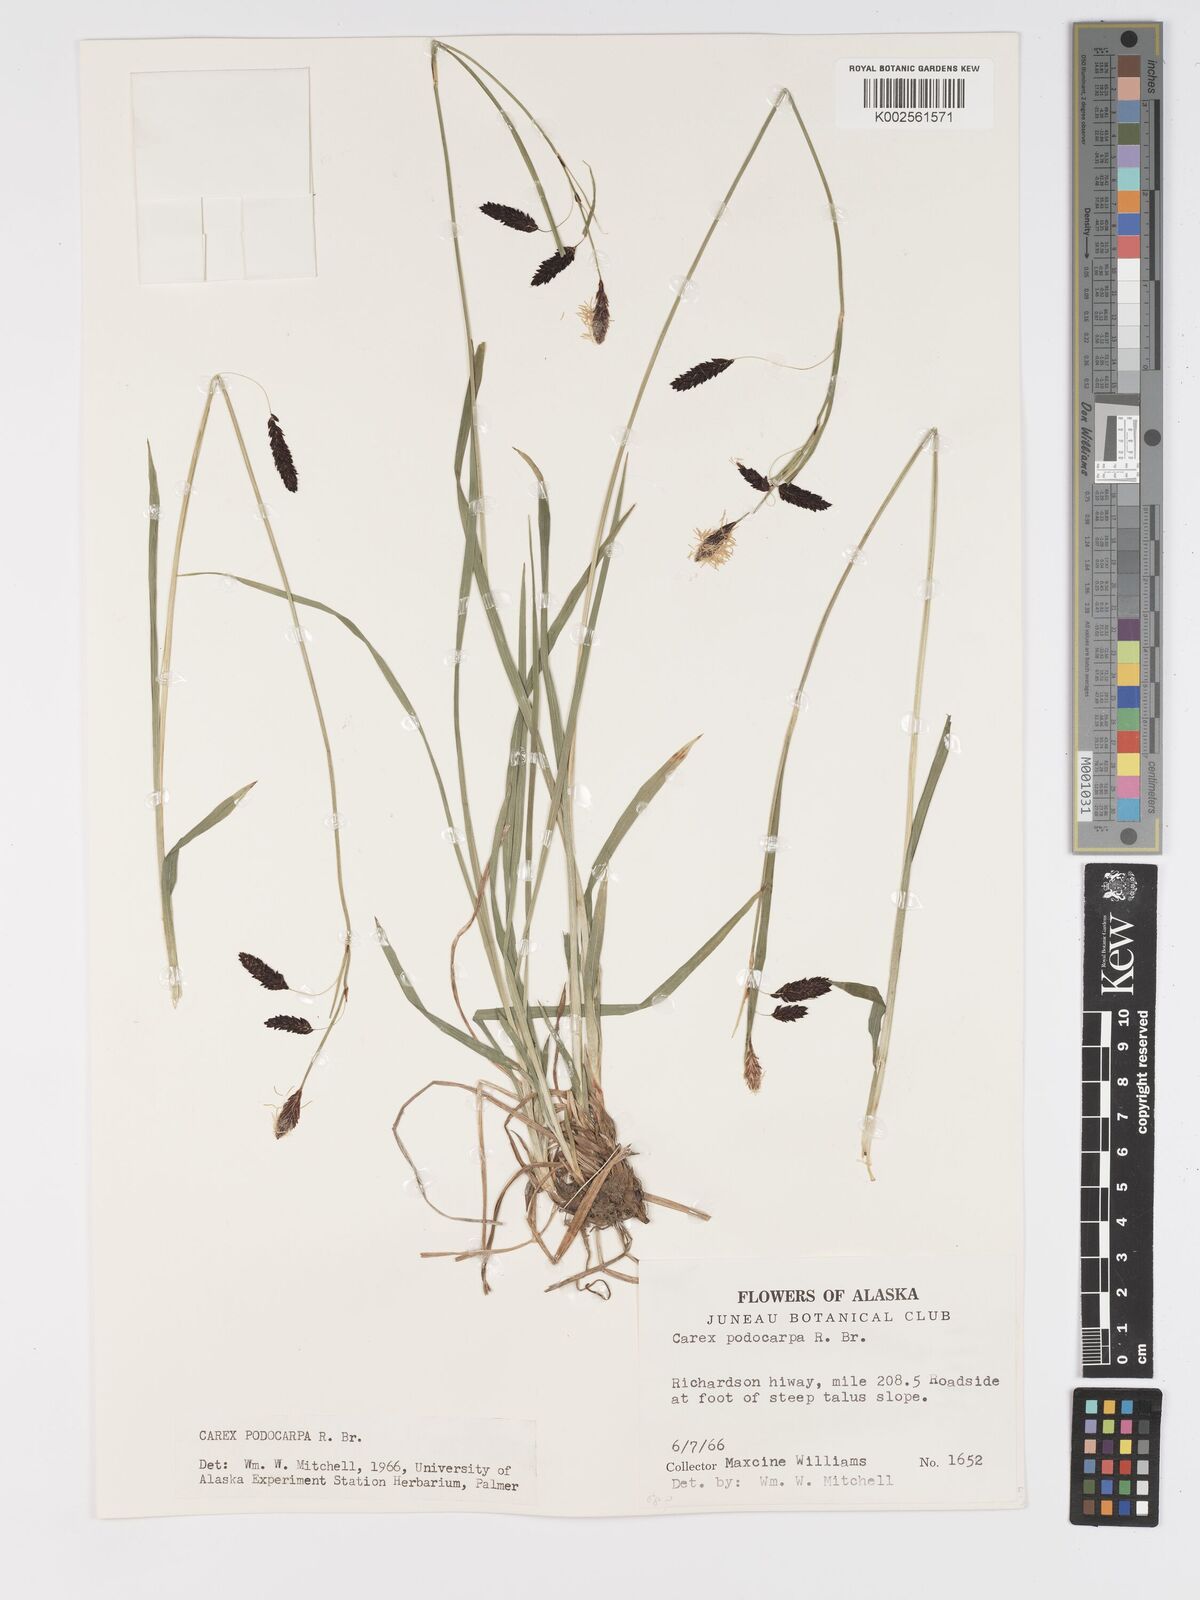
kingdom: Plantae
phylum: Tracheophyta
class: Liliopsida
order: Poales
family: Cyperaceae
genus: Carex
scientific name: Carex podocarpa
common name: Alpine sedge
